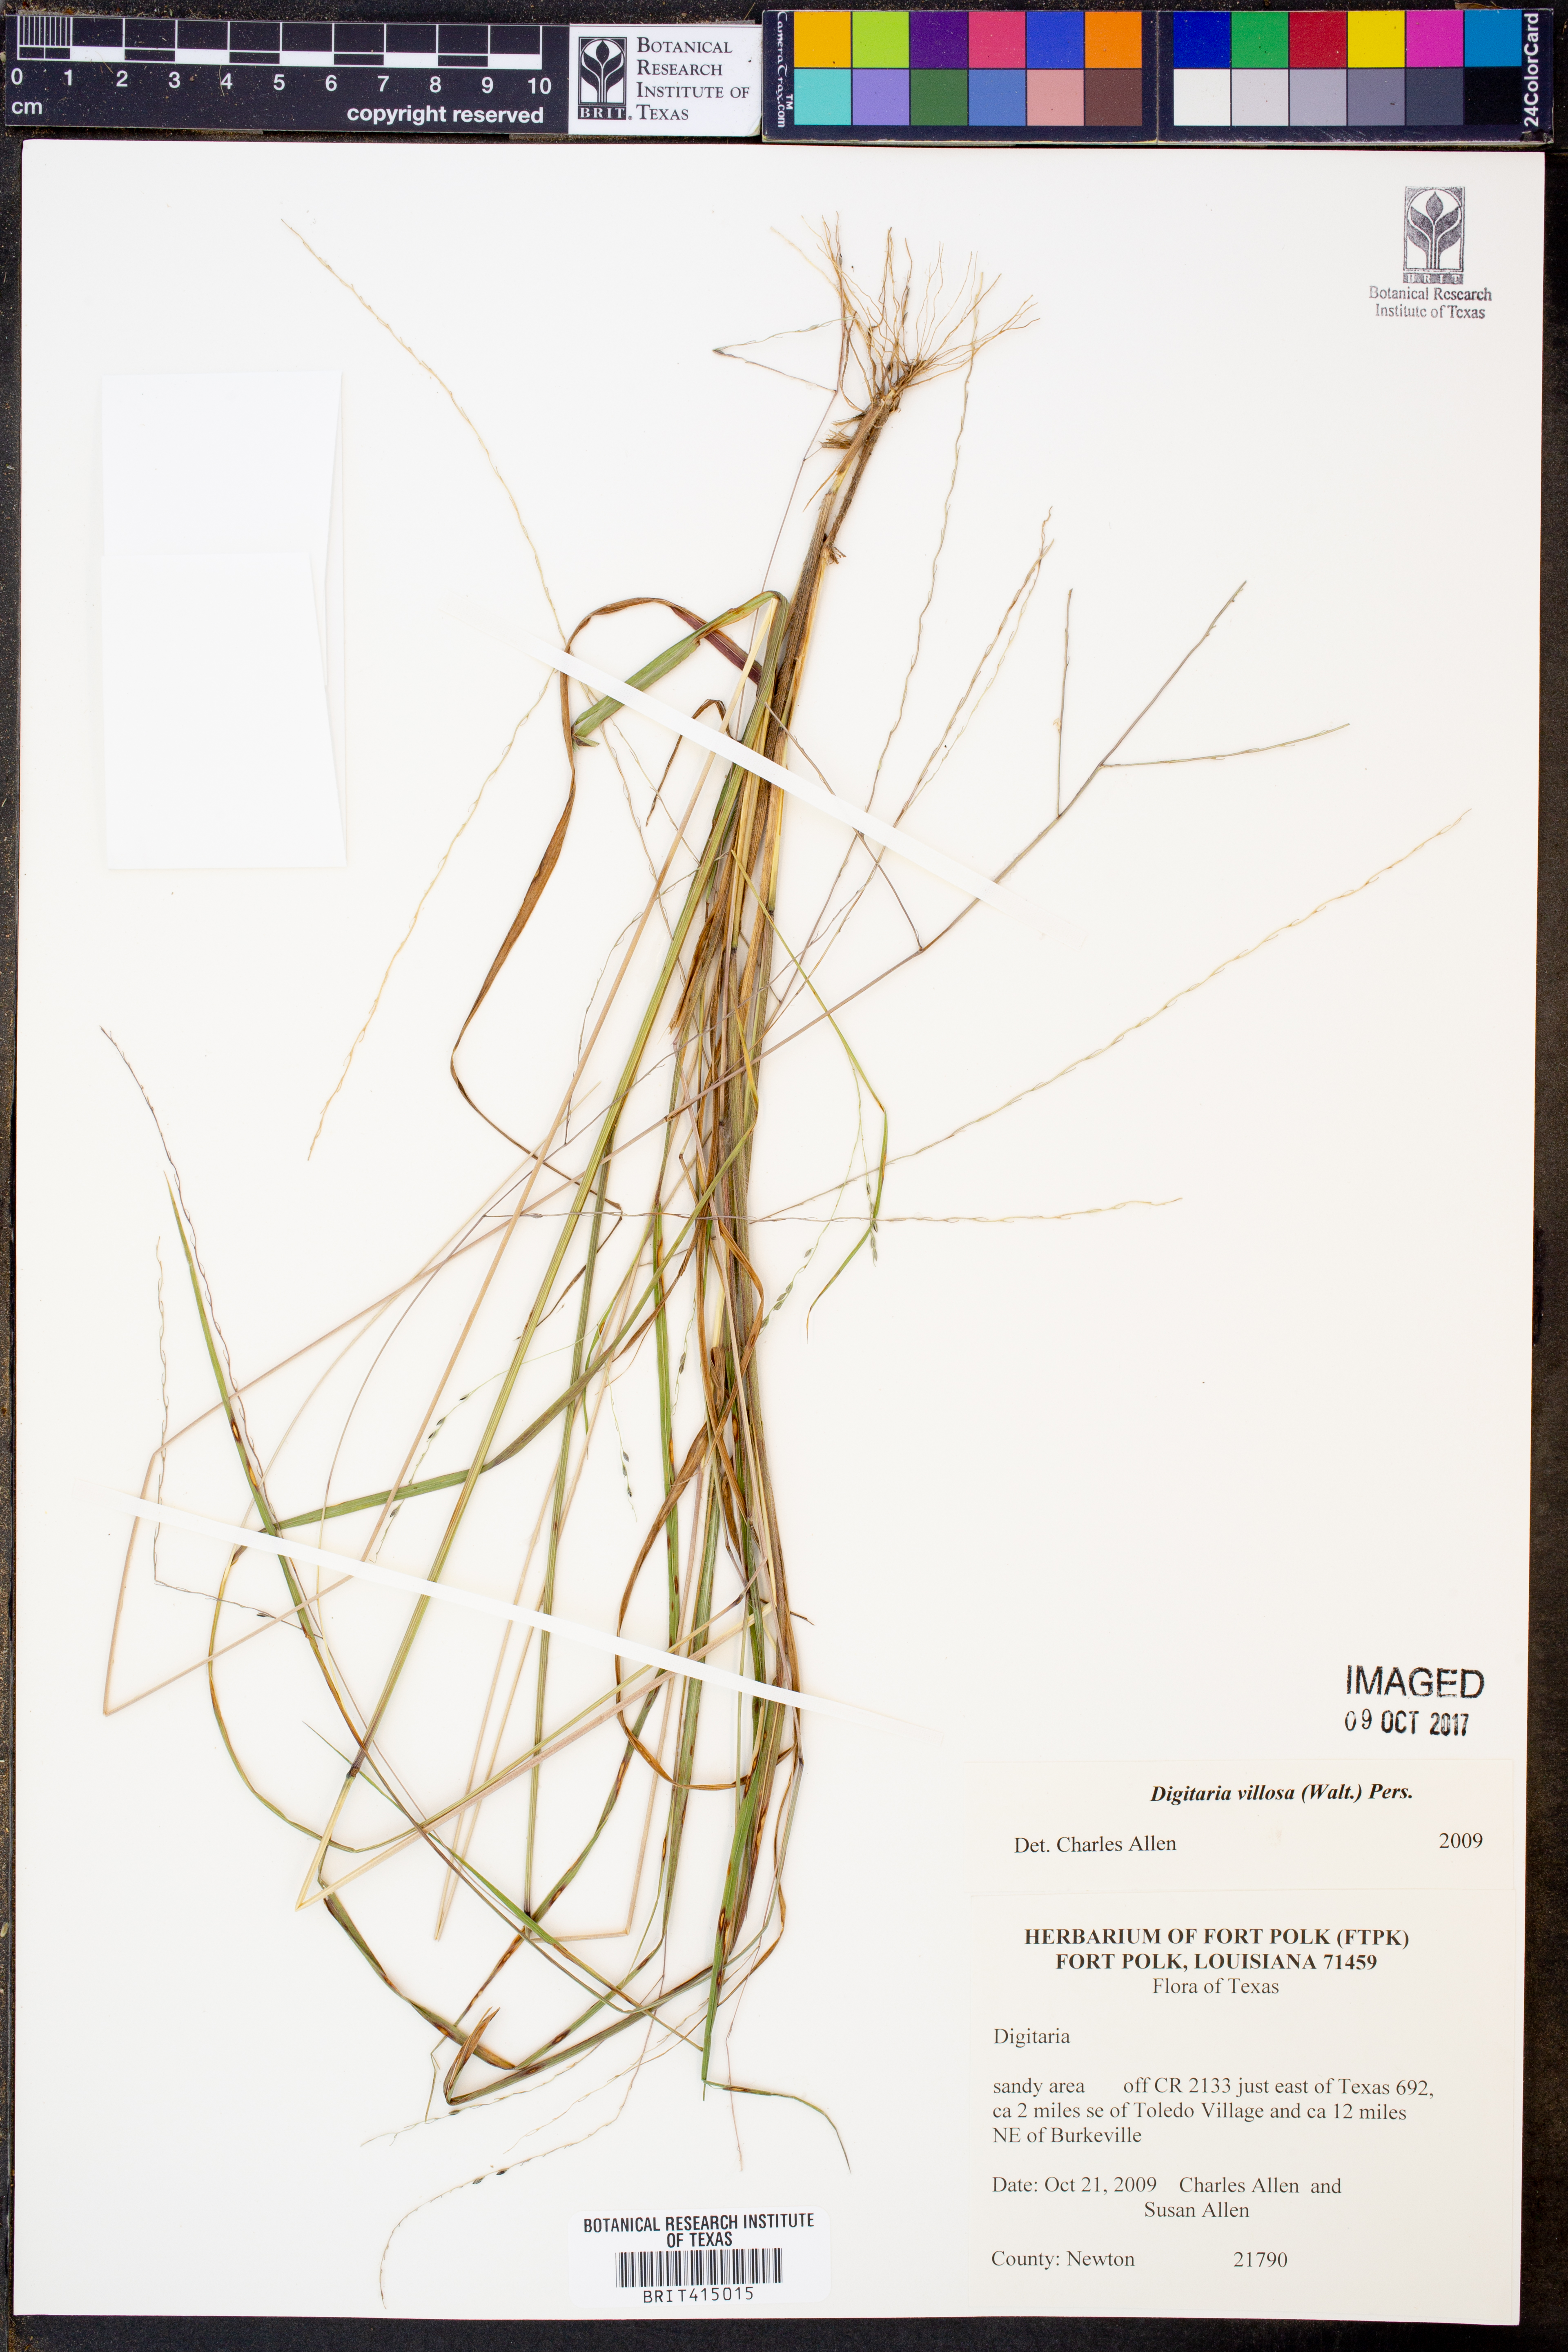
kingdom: Plantae
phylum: Tracheophyta
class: Liliopsida
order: Poales
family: Poaceae
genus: Digitaria
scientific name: Digitaria villosa
